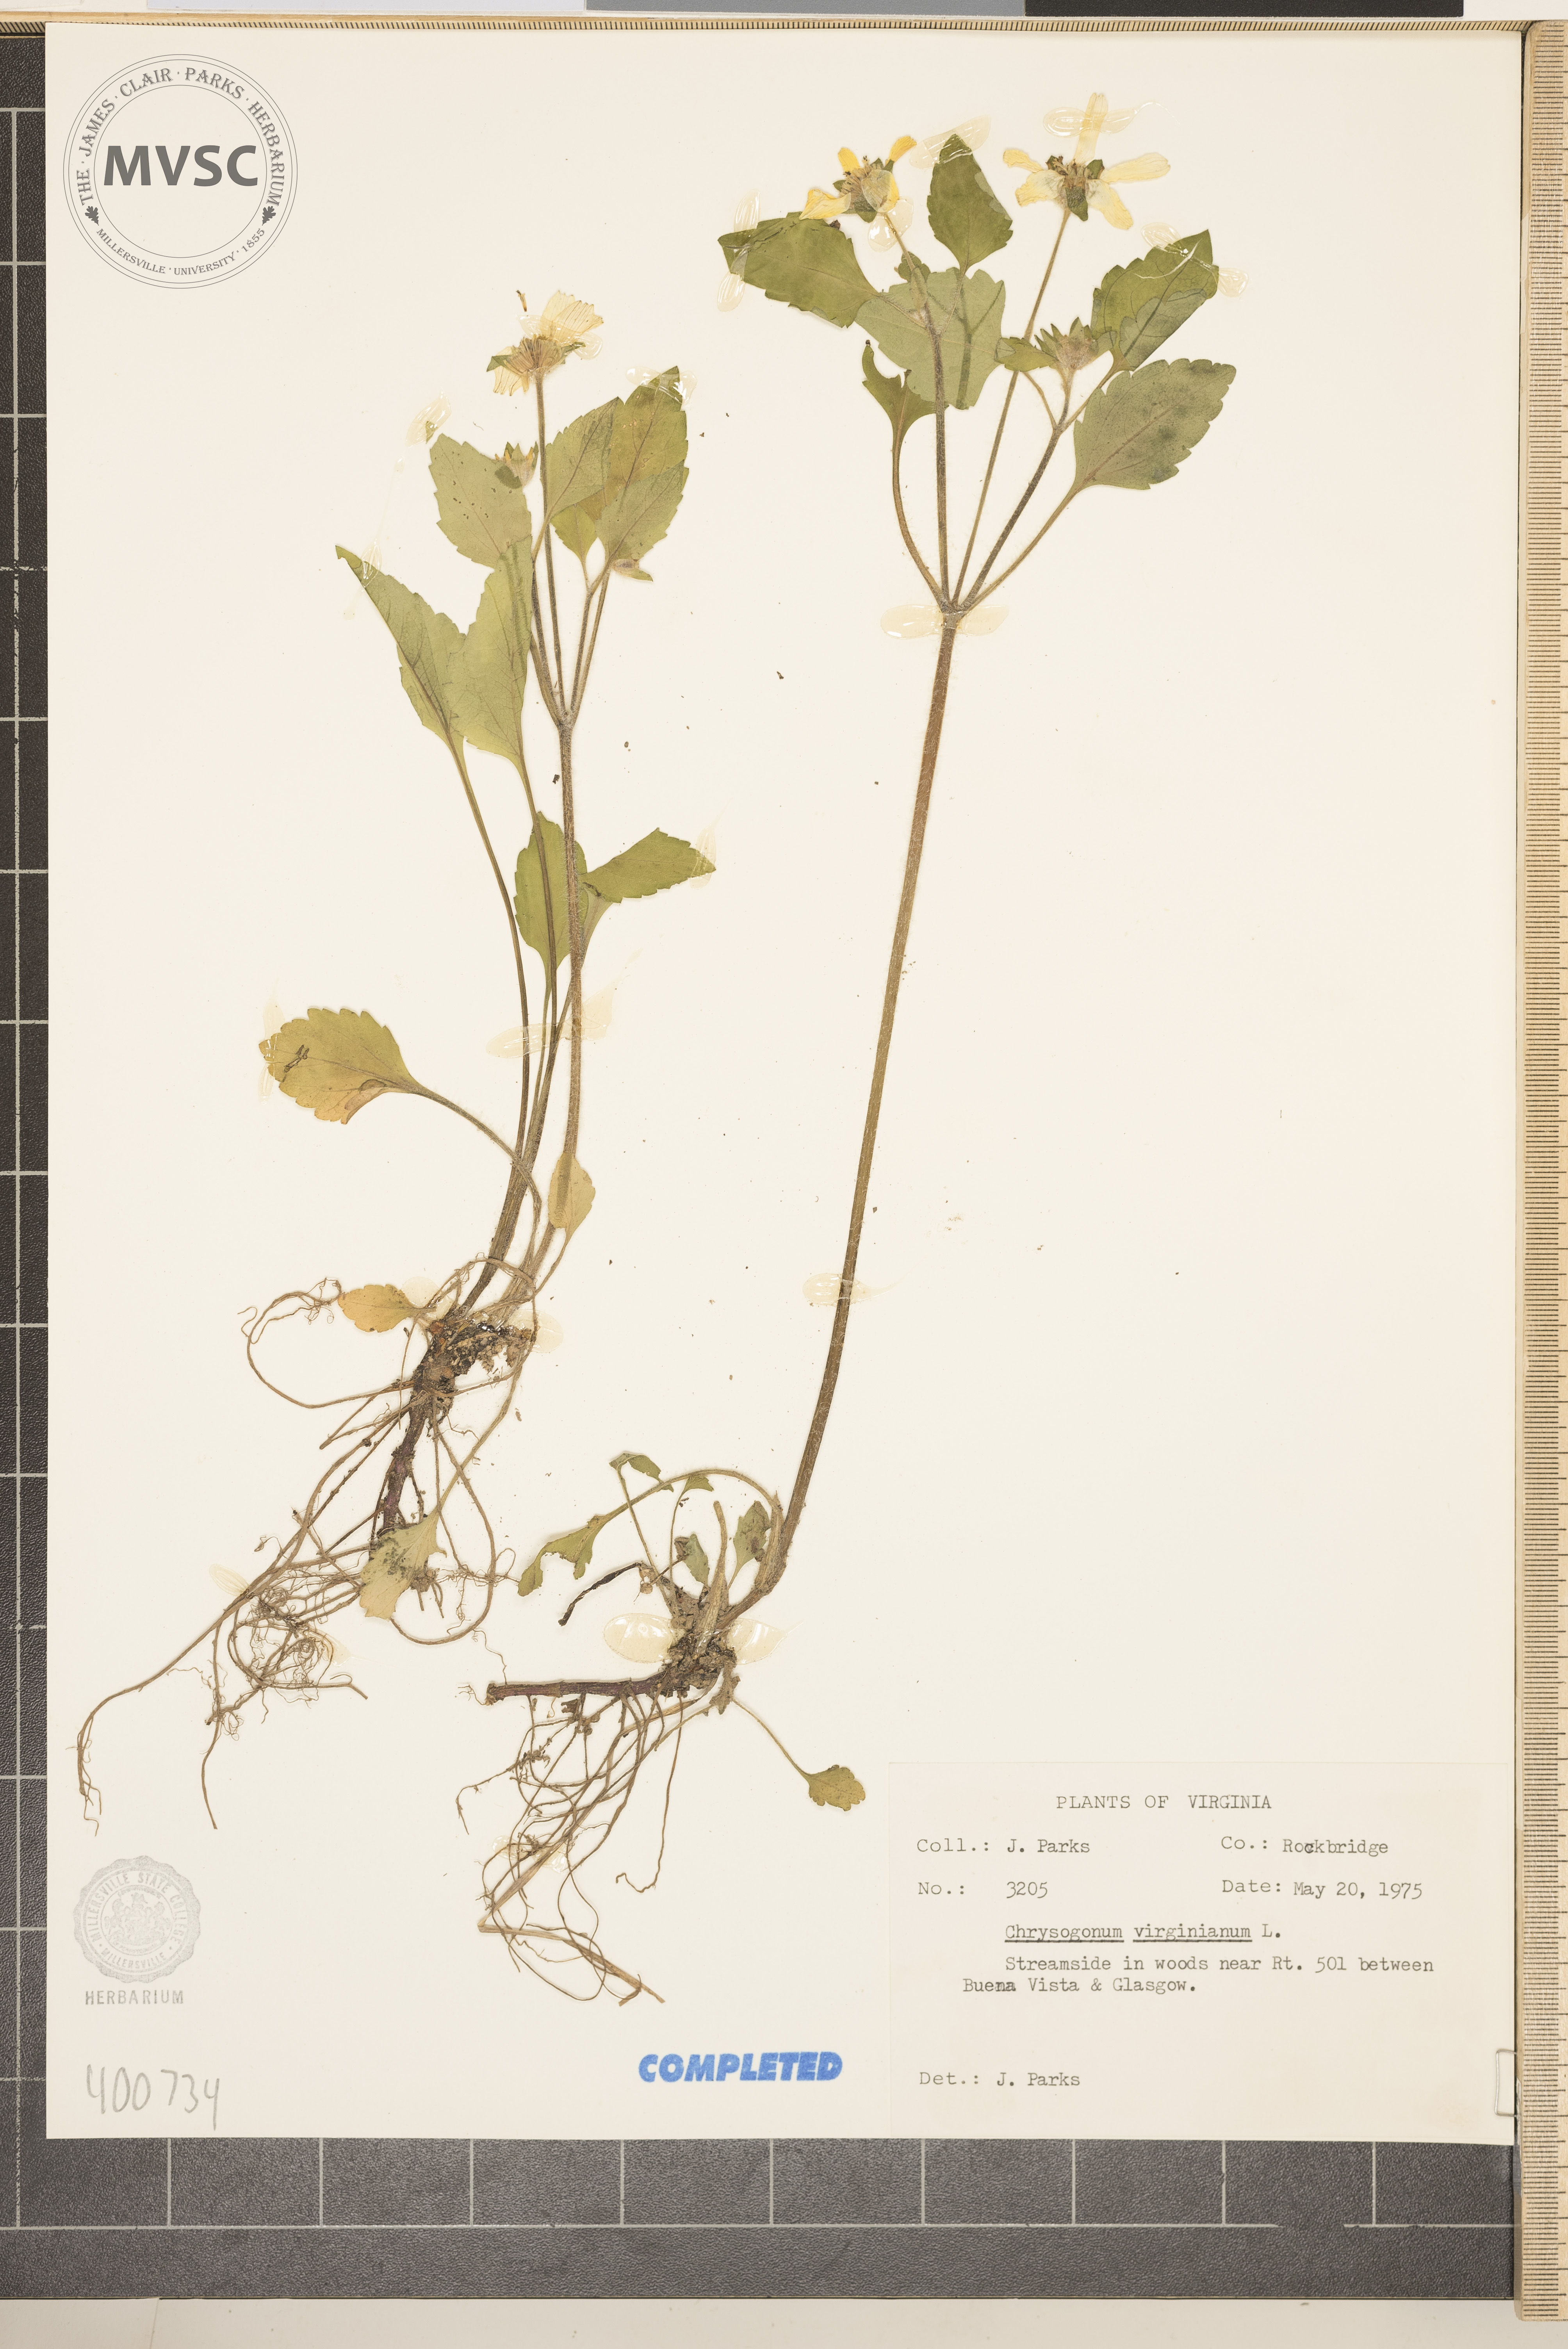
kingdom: Plantae
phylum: Tracheophyta
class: Magnoliopsida
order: Asterales
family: Asteraceae
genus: Chrysogonum
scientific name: Chrysogonum virginianum
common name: Golden-knee
